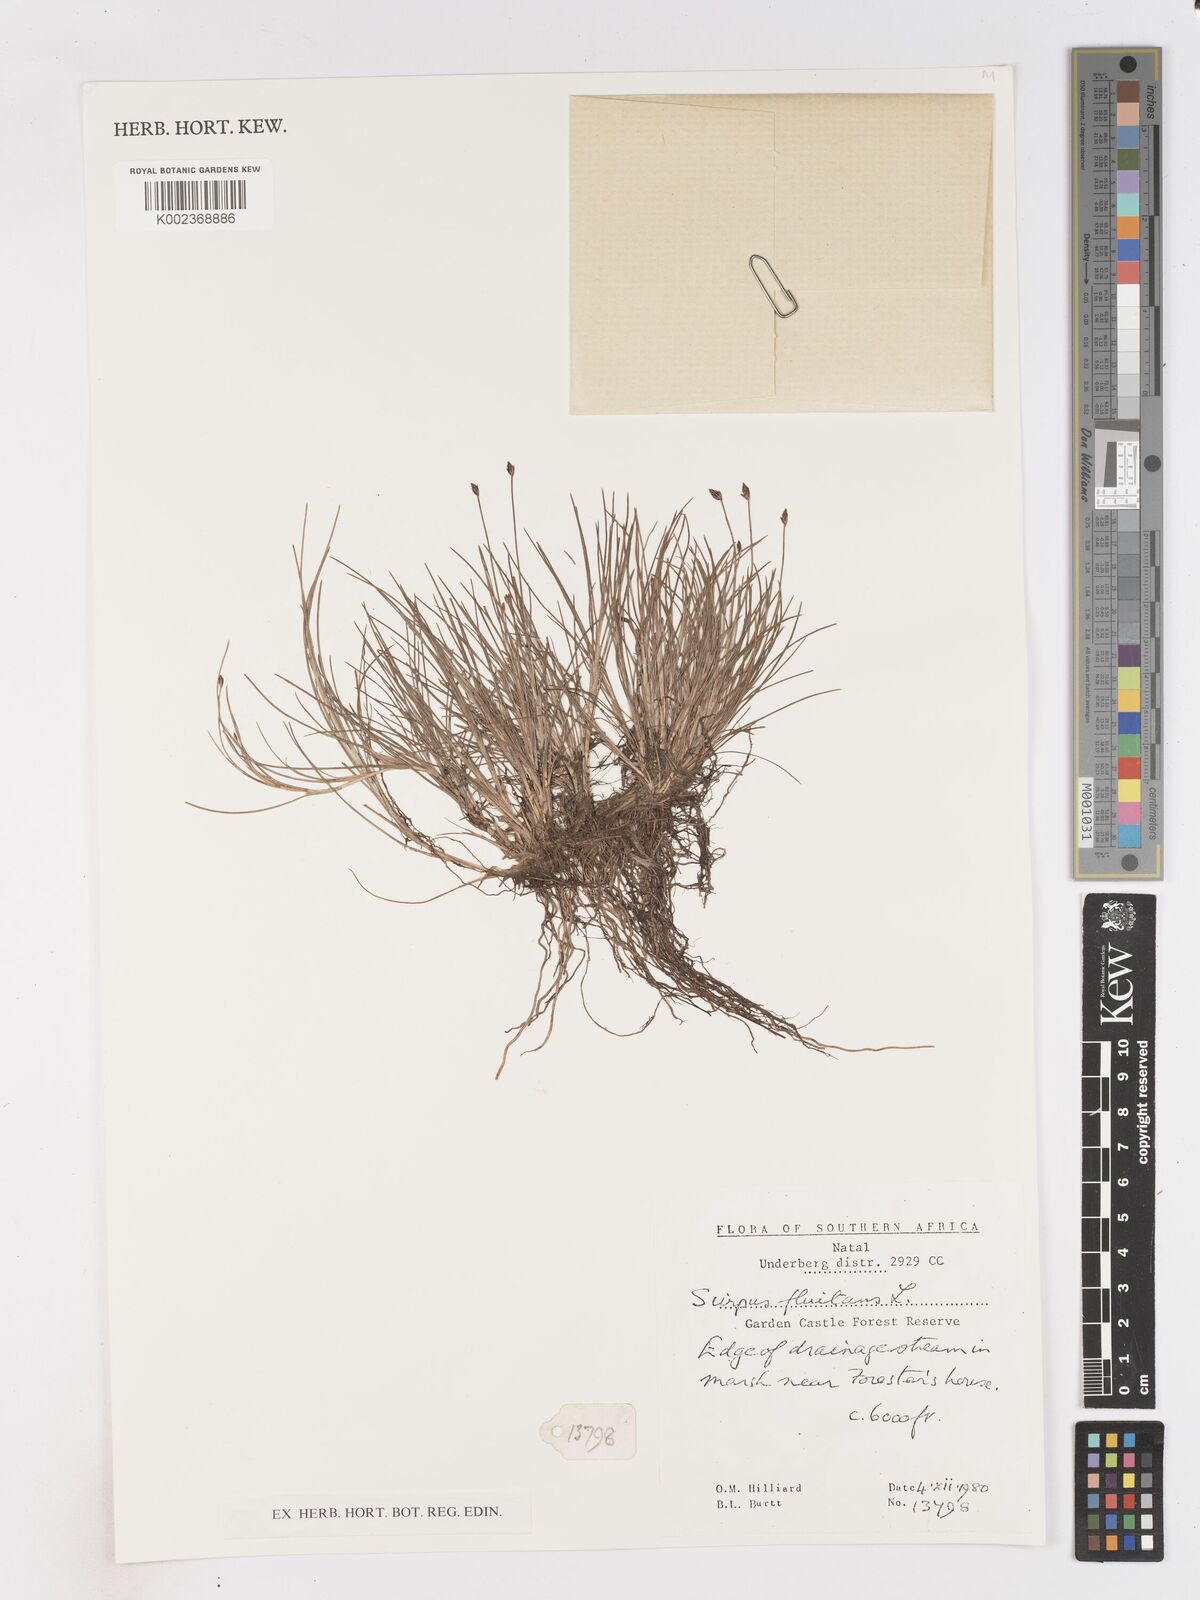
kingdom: Plantae
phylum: Tracheophyta
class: Liliopsida
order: Poales
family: Cyperaceae
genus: Isolepis
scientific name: Isolepis fluitans
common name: Floating club-rush
